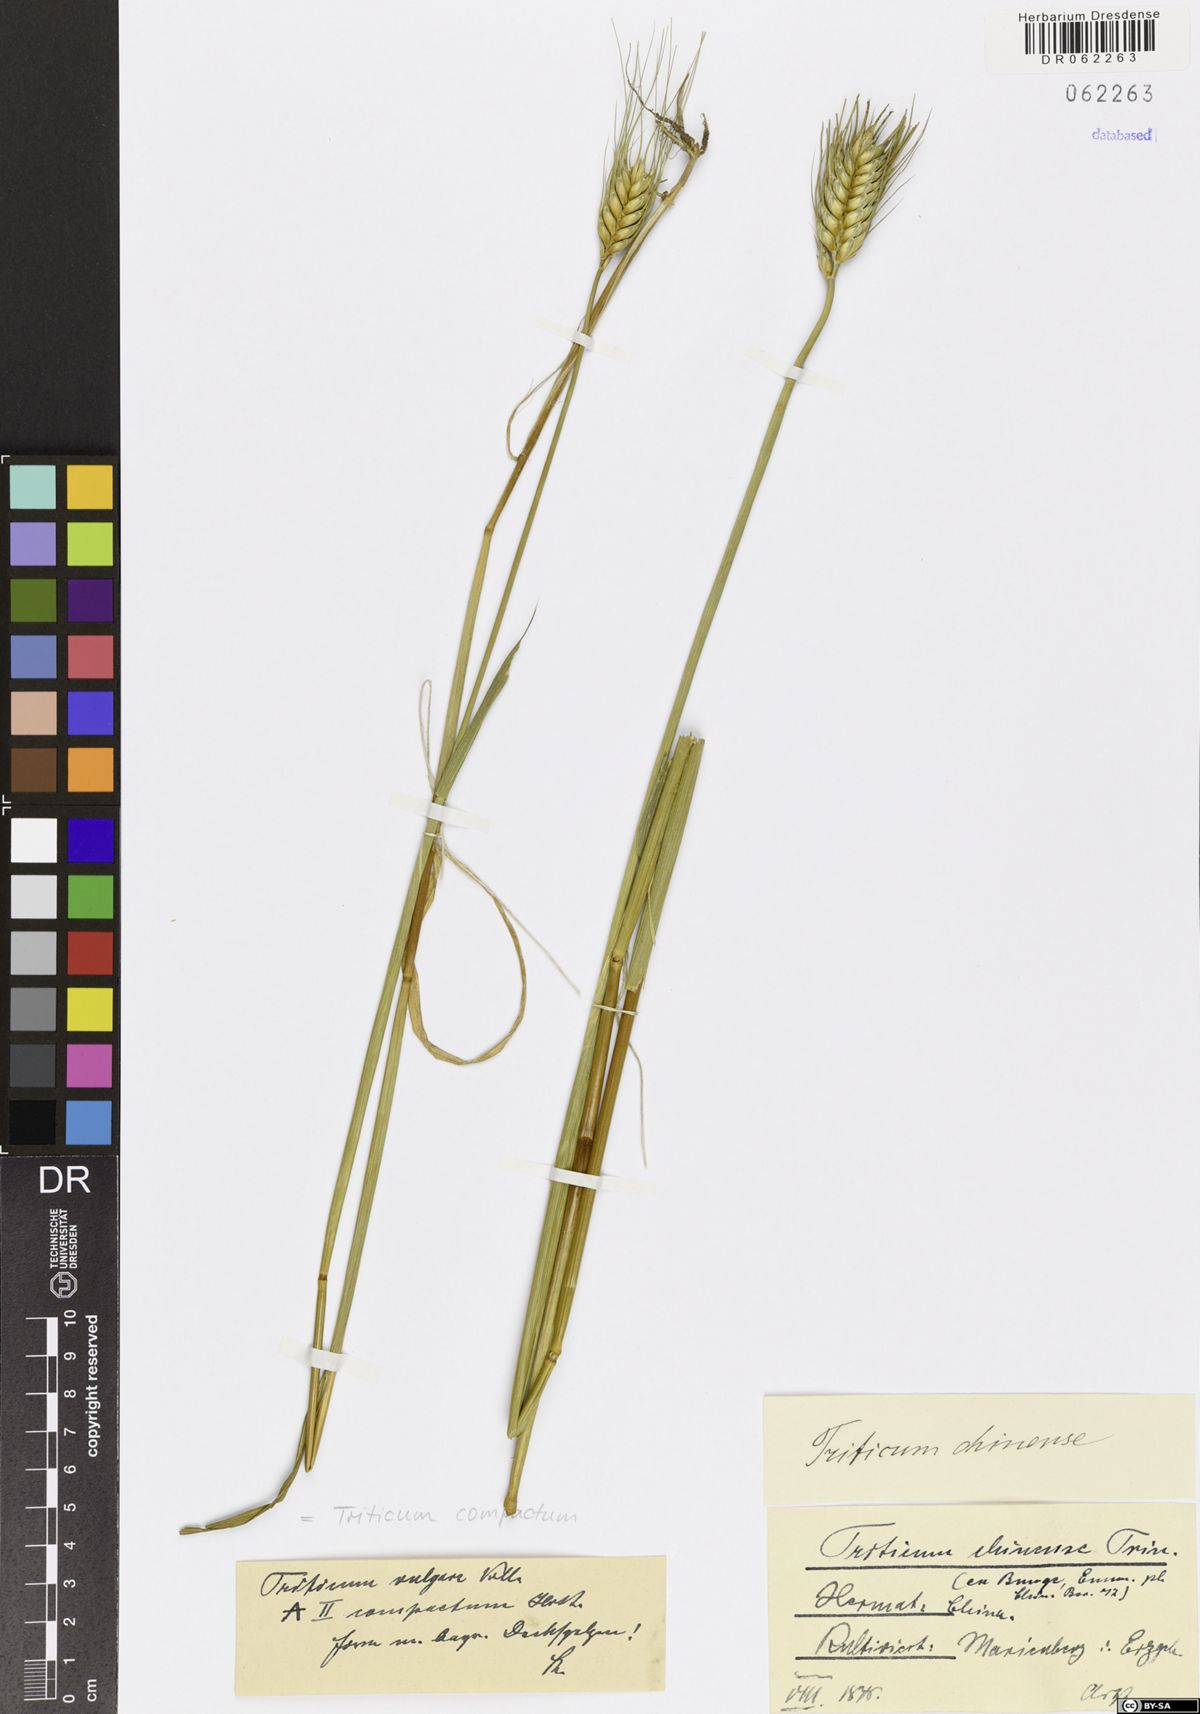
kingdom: Plantae
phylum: Tracheophyta
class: Liliopsida
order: Poales
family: Poaceae
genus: Triticum
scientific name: Triticum aestivum
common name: Common wheat
